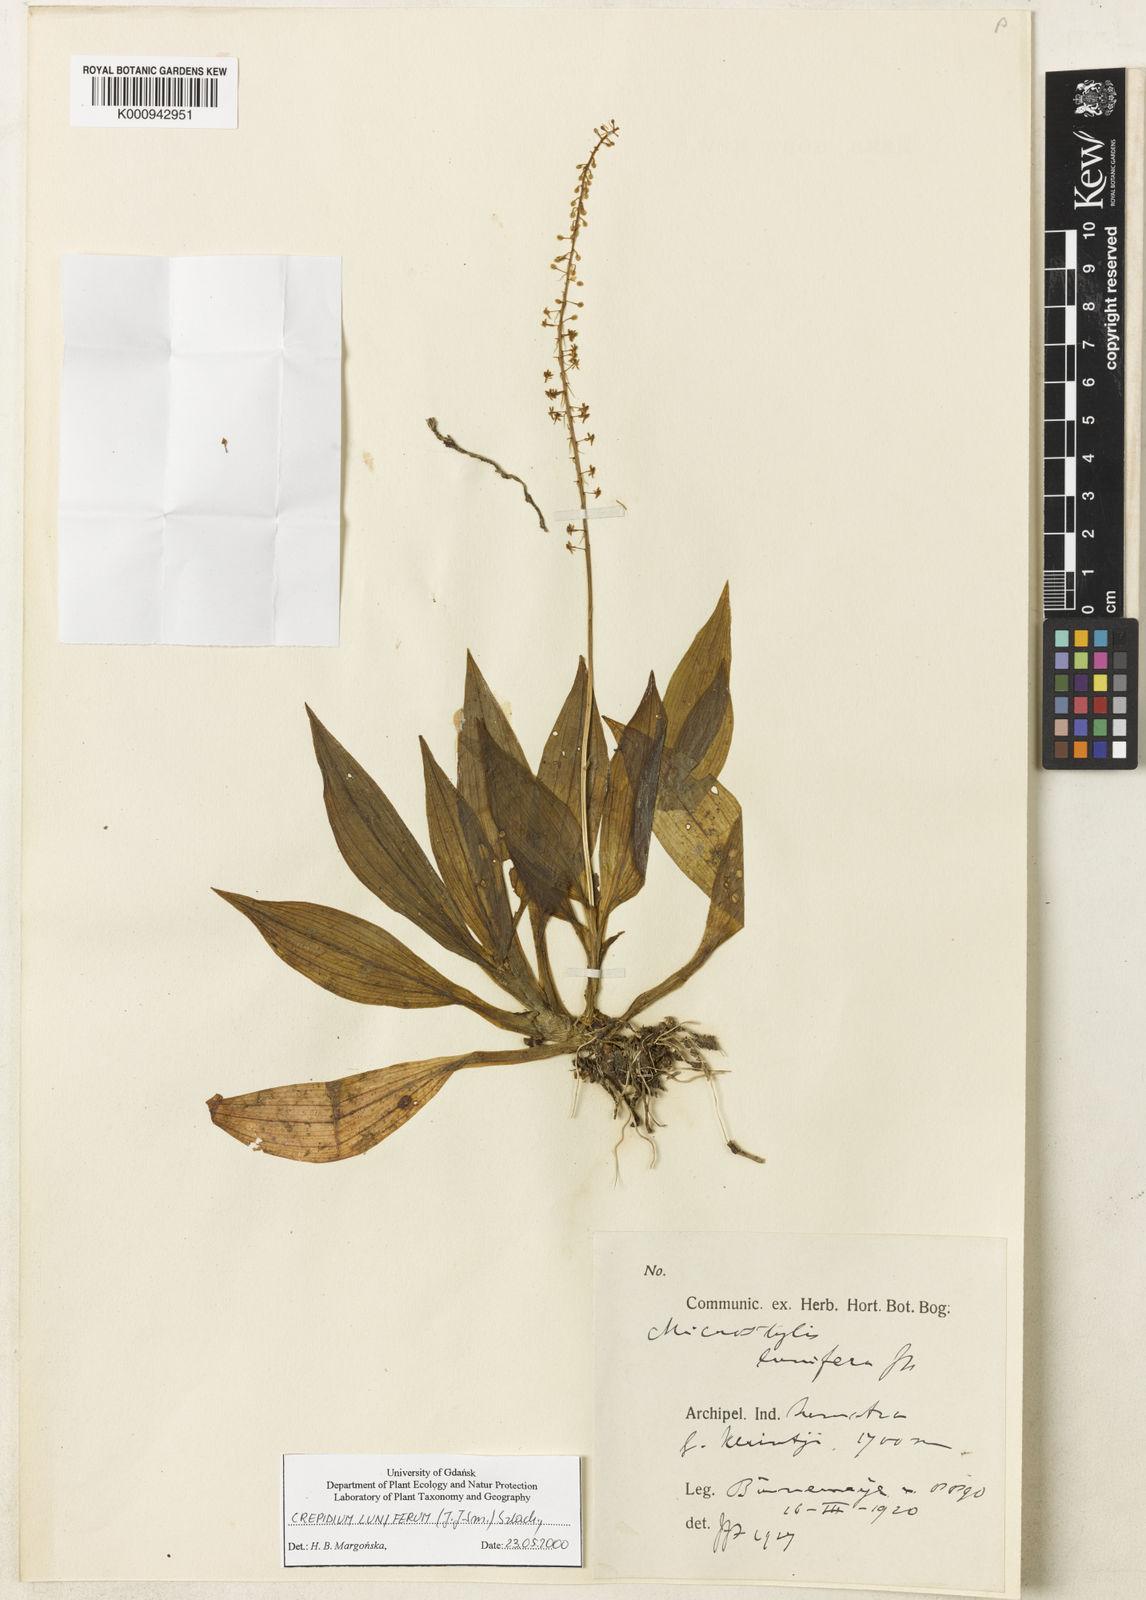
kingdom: Plantae
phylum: Tracheophyta
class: Liliopsida
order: Asparagales
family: Orchidaceae
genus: Crepidium
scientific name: Crepidium luniferum
